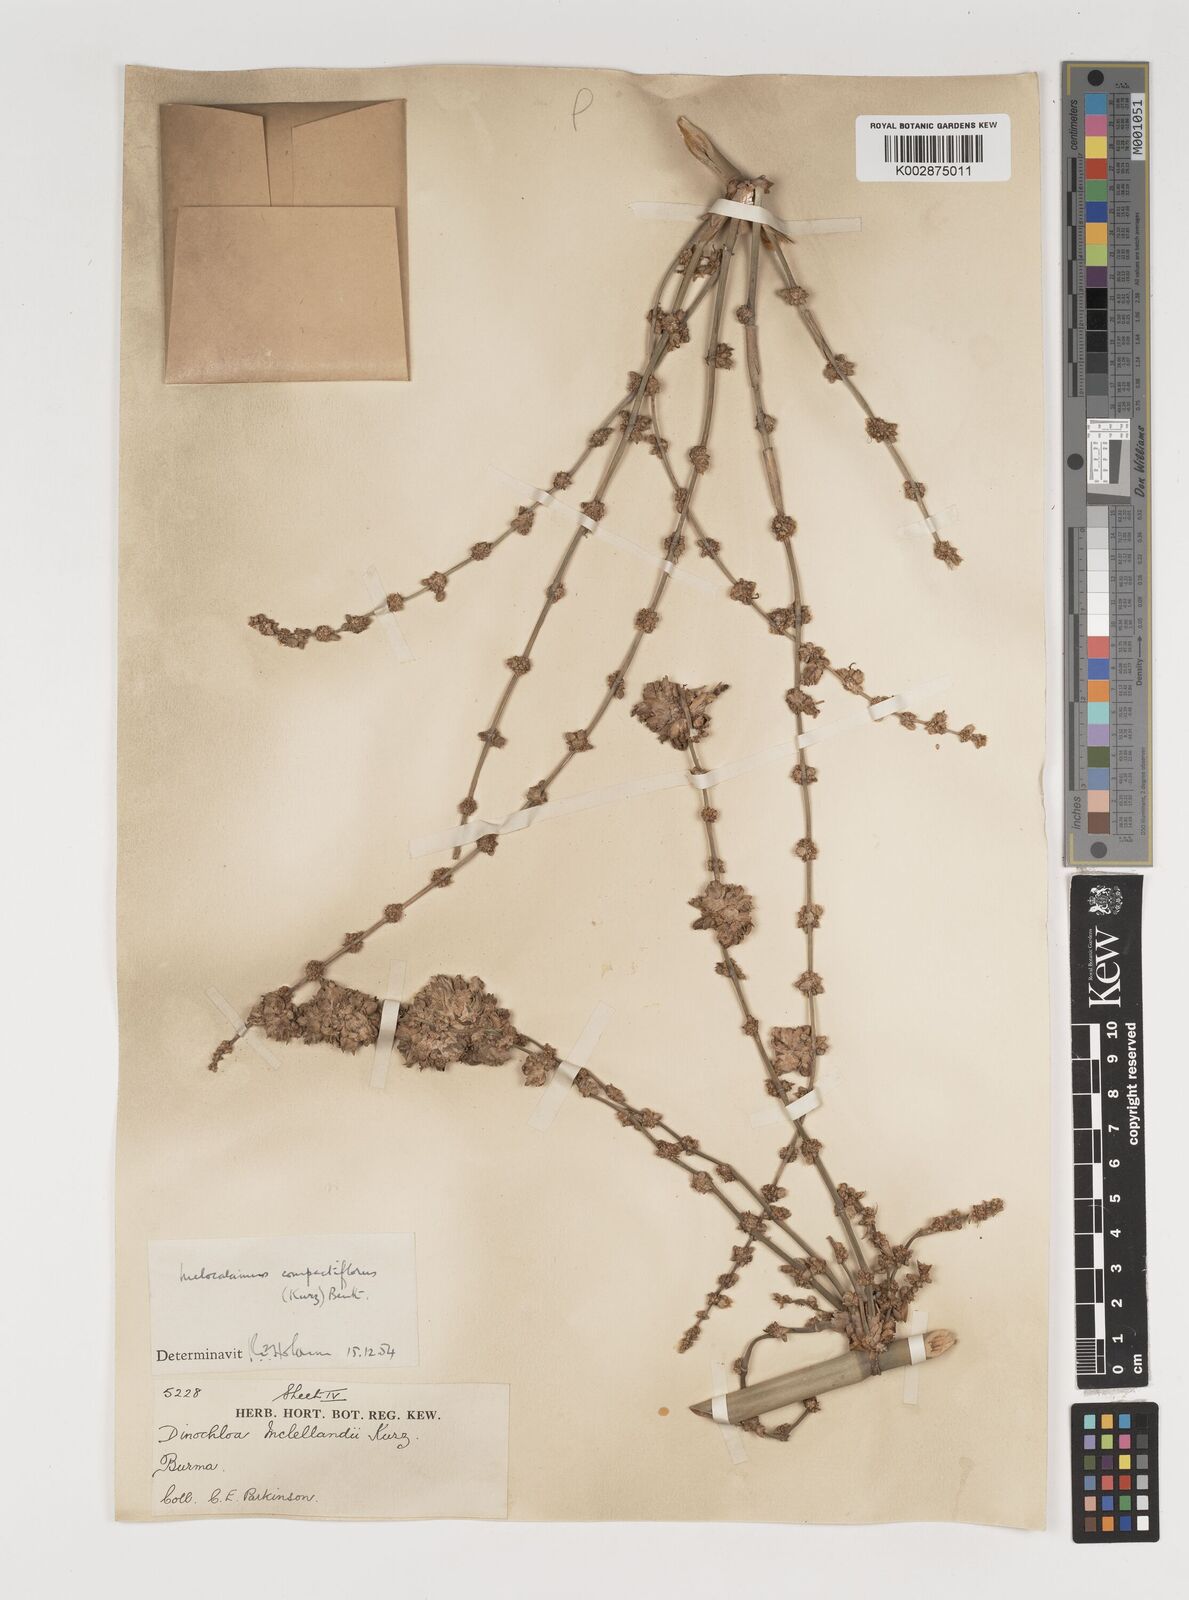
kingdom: Plantae
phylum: Tracheophyta
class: Liliopsida
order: Poales
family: Poaceae
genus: Melocalamus
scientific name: Melocalamus compactiflorus
